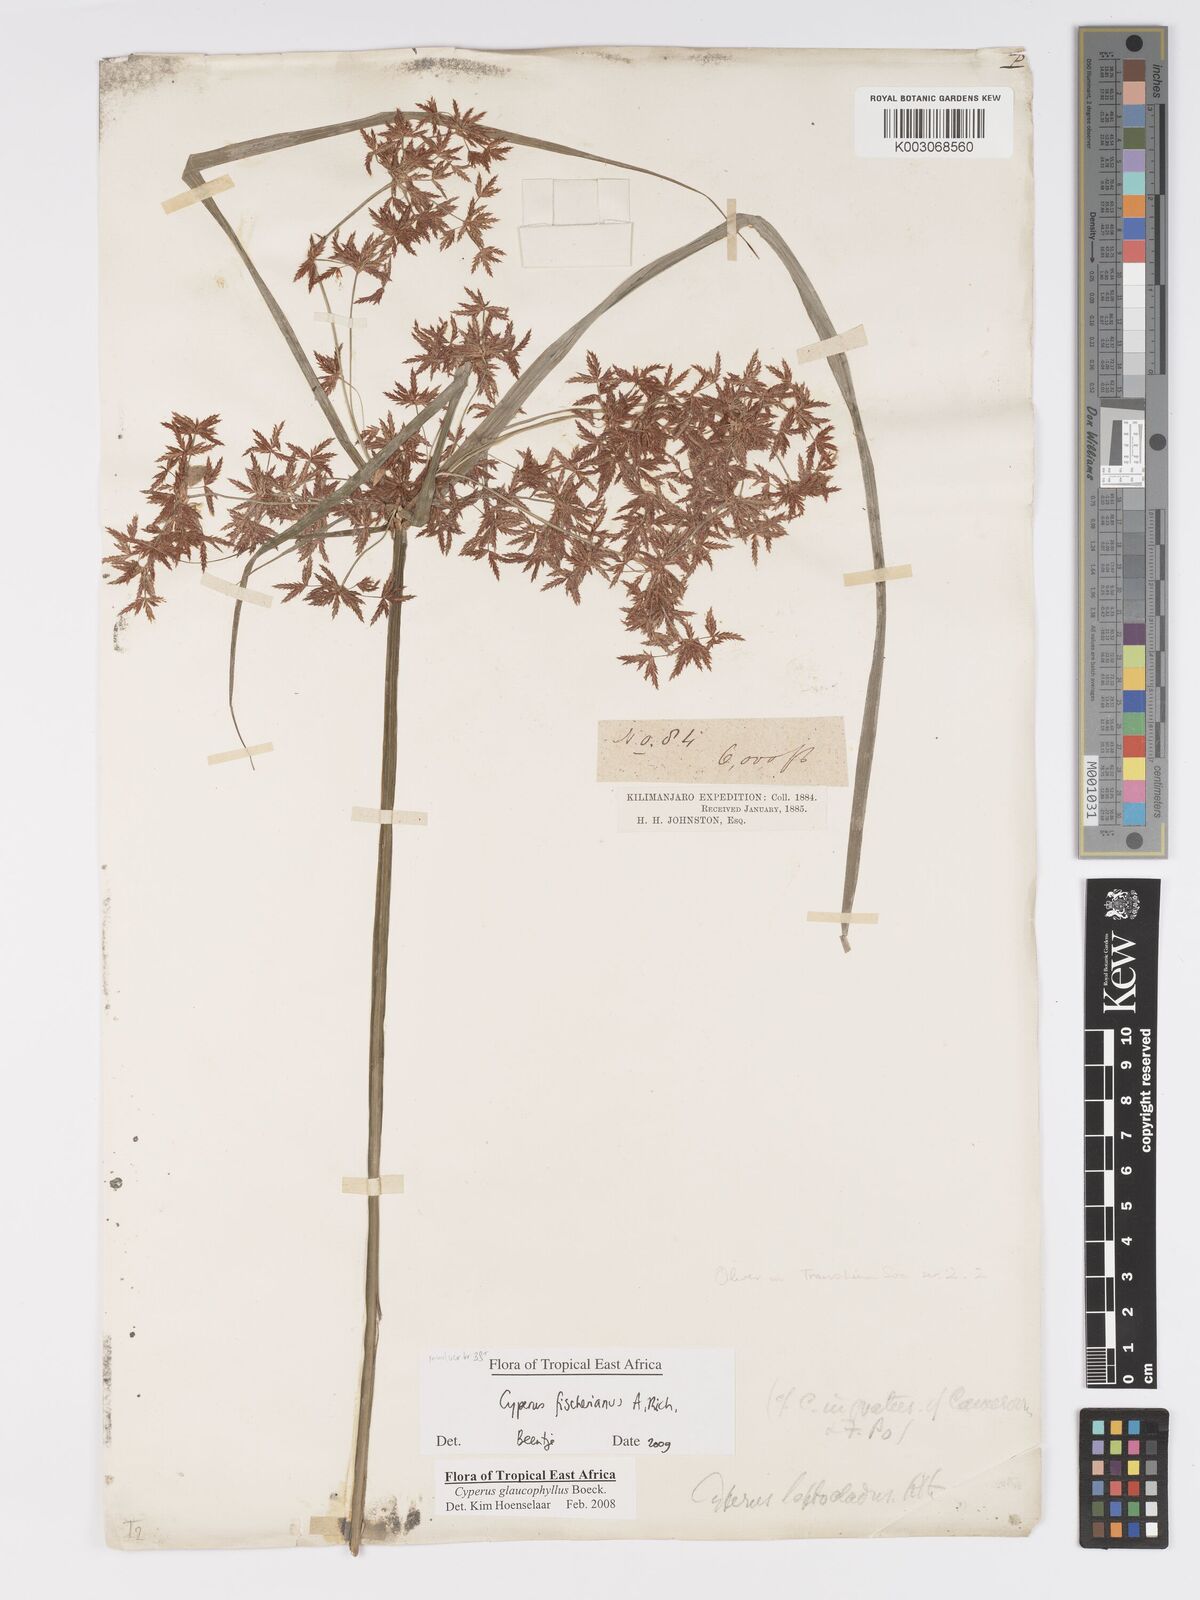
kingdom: Plantae
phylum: Tracheophyta
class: Liliopsida
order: Poales
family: Cyperaceae
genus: Cyperus
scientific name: Cyperus fischerianus
